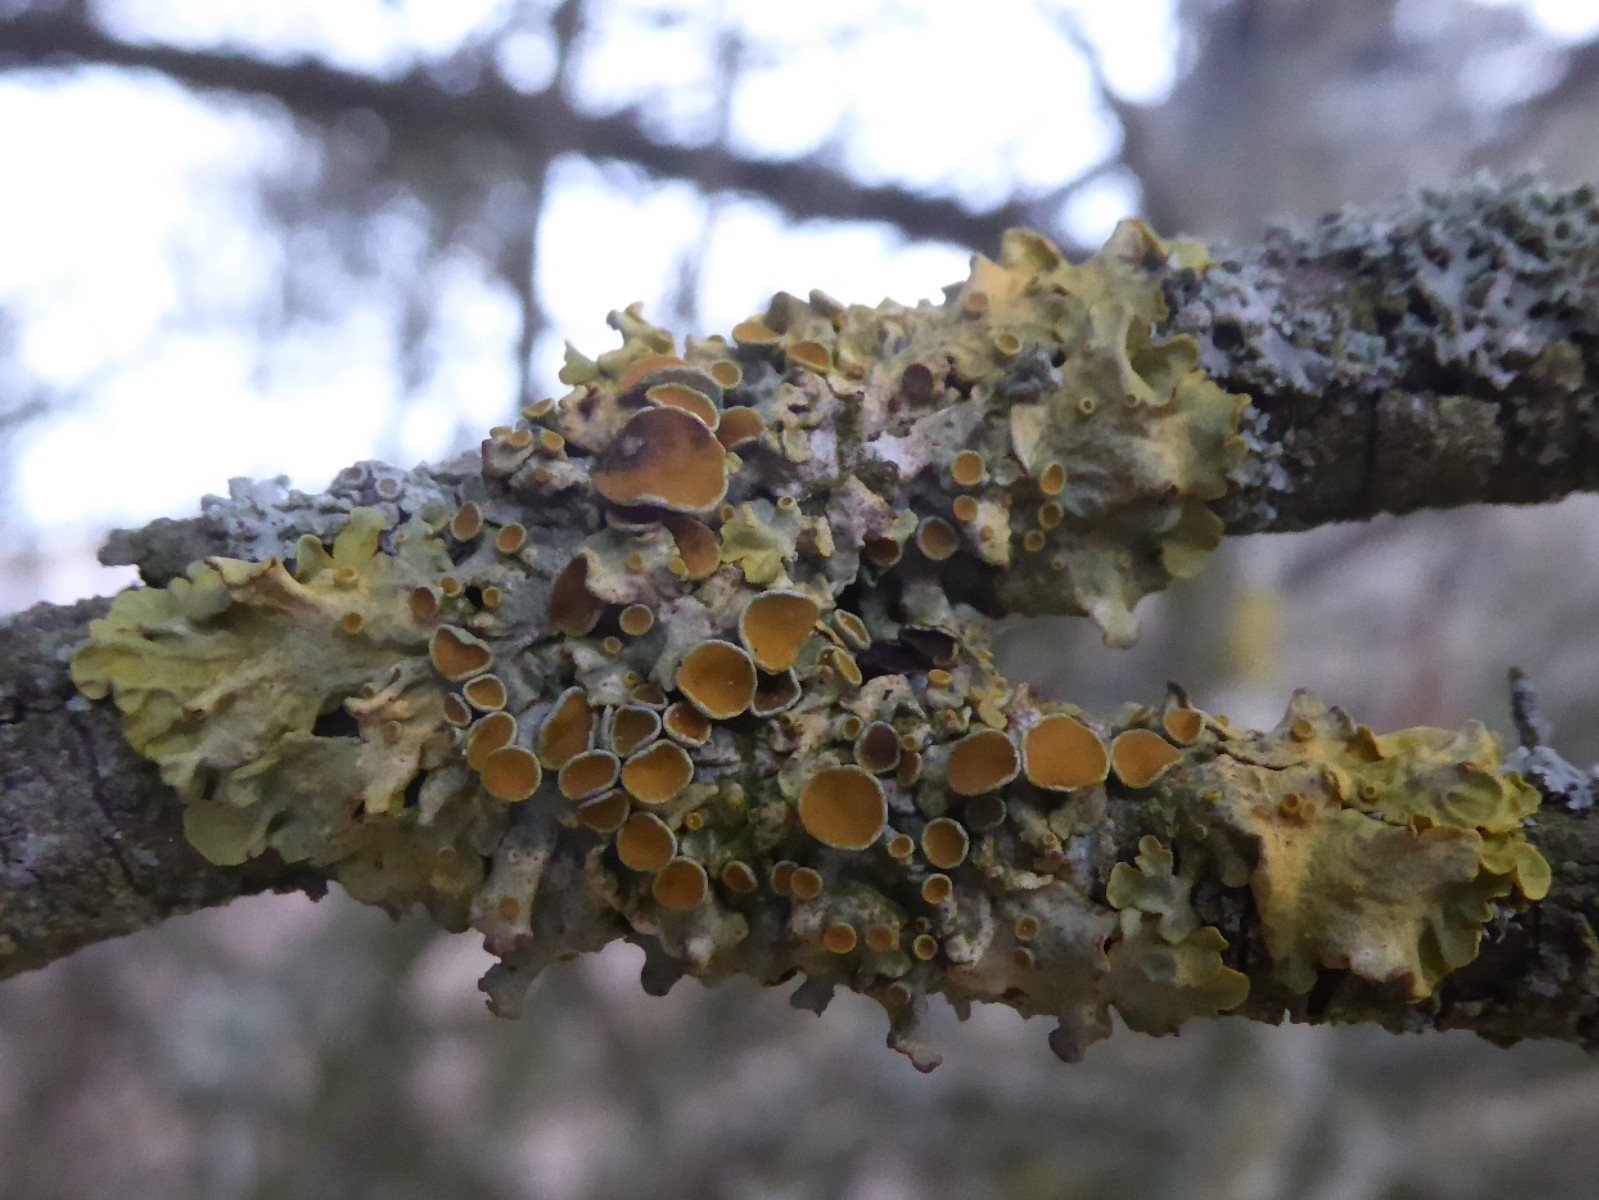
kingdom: Fungi
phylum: Ascomycota
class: Lecanoromycetes
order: Teloschistales
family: Teloschistaceae
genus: Xanthoria
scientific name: Xanthoria parietina
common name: almindelig væggelav
